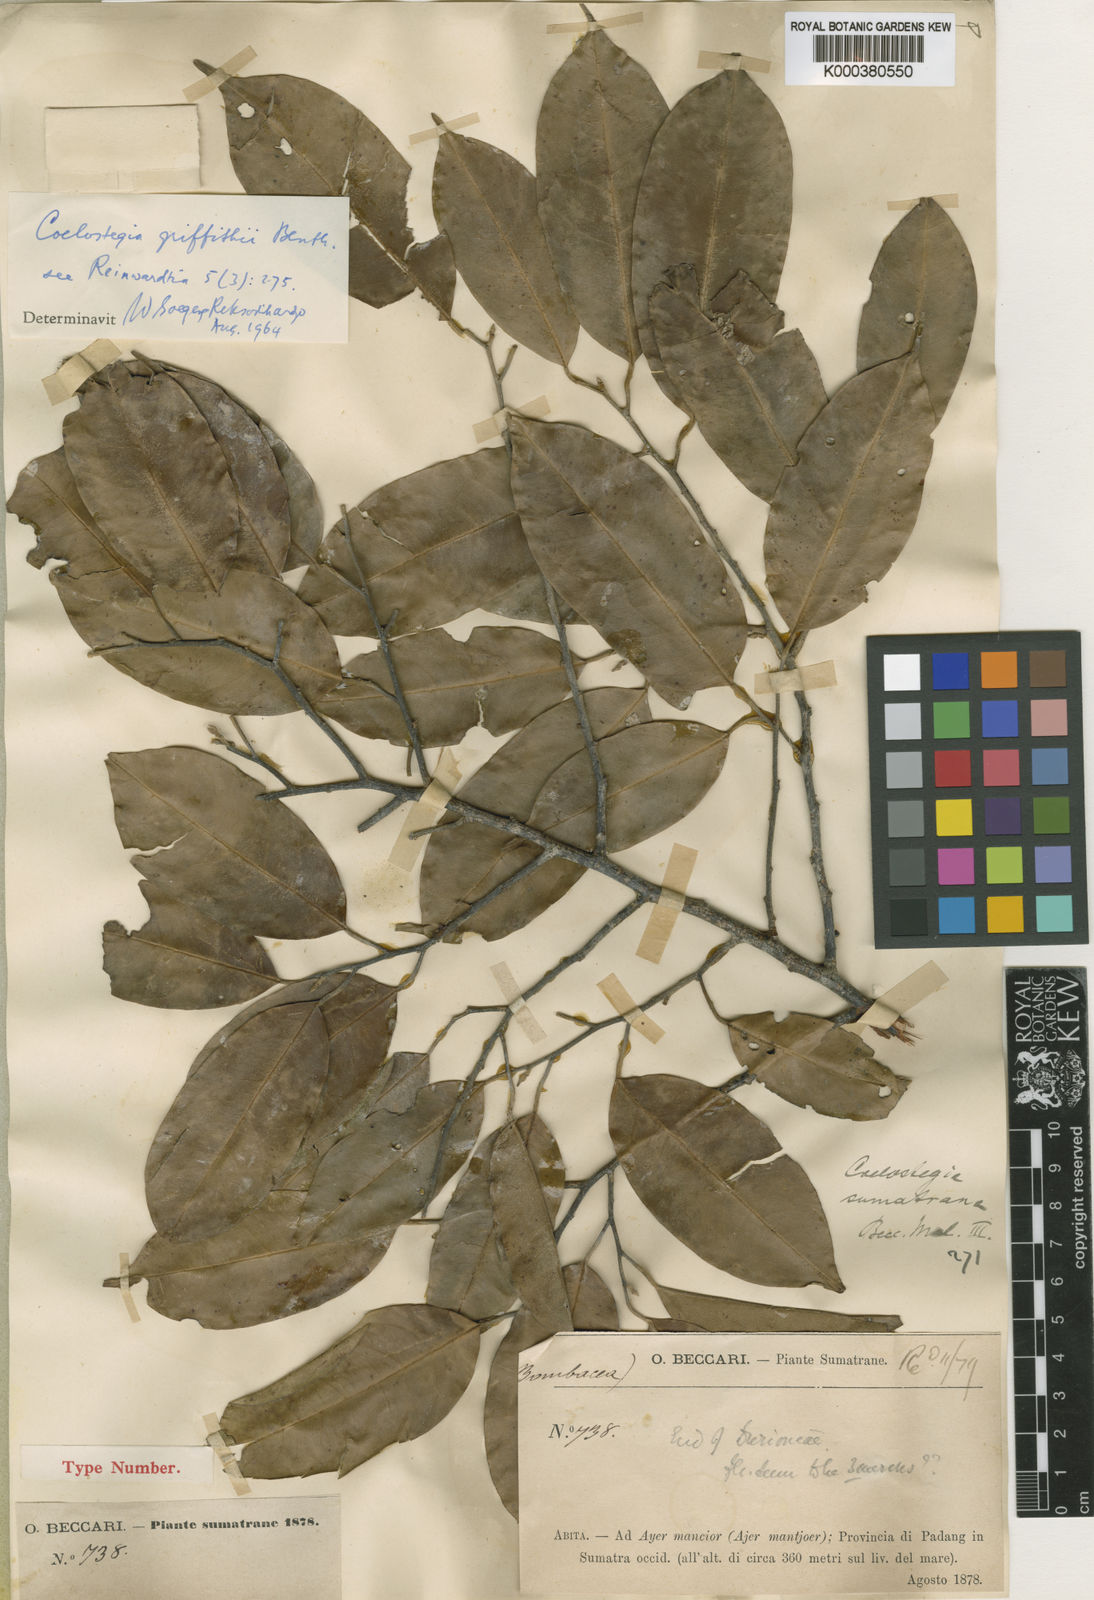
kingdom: Plantae
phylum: Tracheophyta
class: Magnoliopsida
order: Malvales
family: Malvaceae
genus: Coelostegia
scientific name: Coelostegia griffithii
